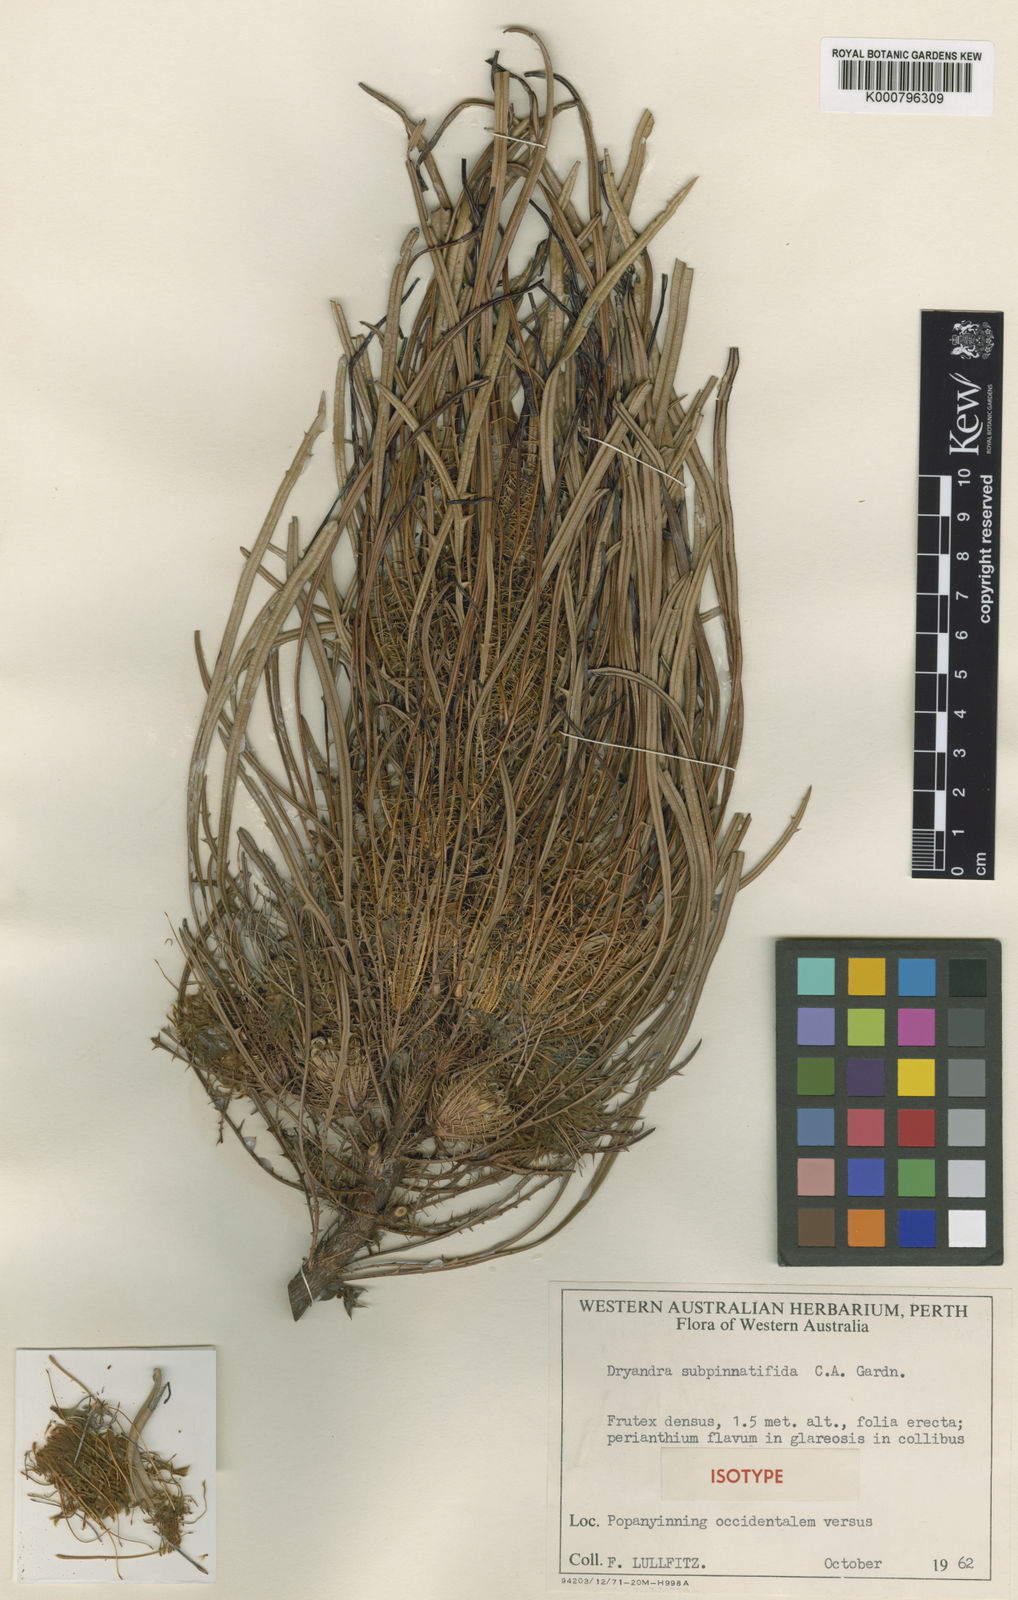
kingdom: Plantae
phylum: Tracheophyta
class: Magnoliopsida
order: Proteales
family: Proteaceae
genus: Banksia
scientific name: Banksia subpinnatifida
